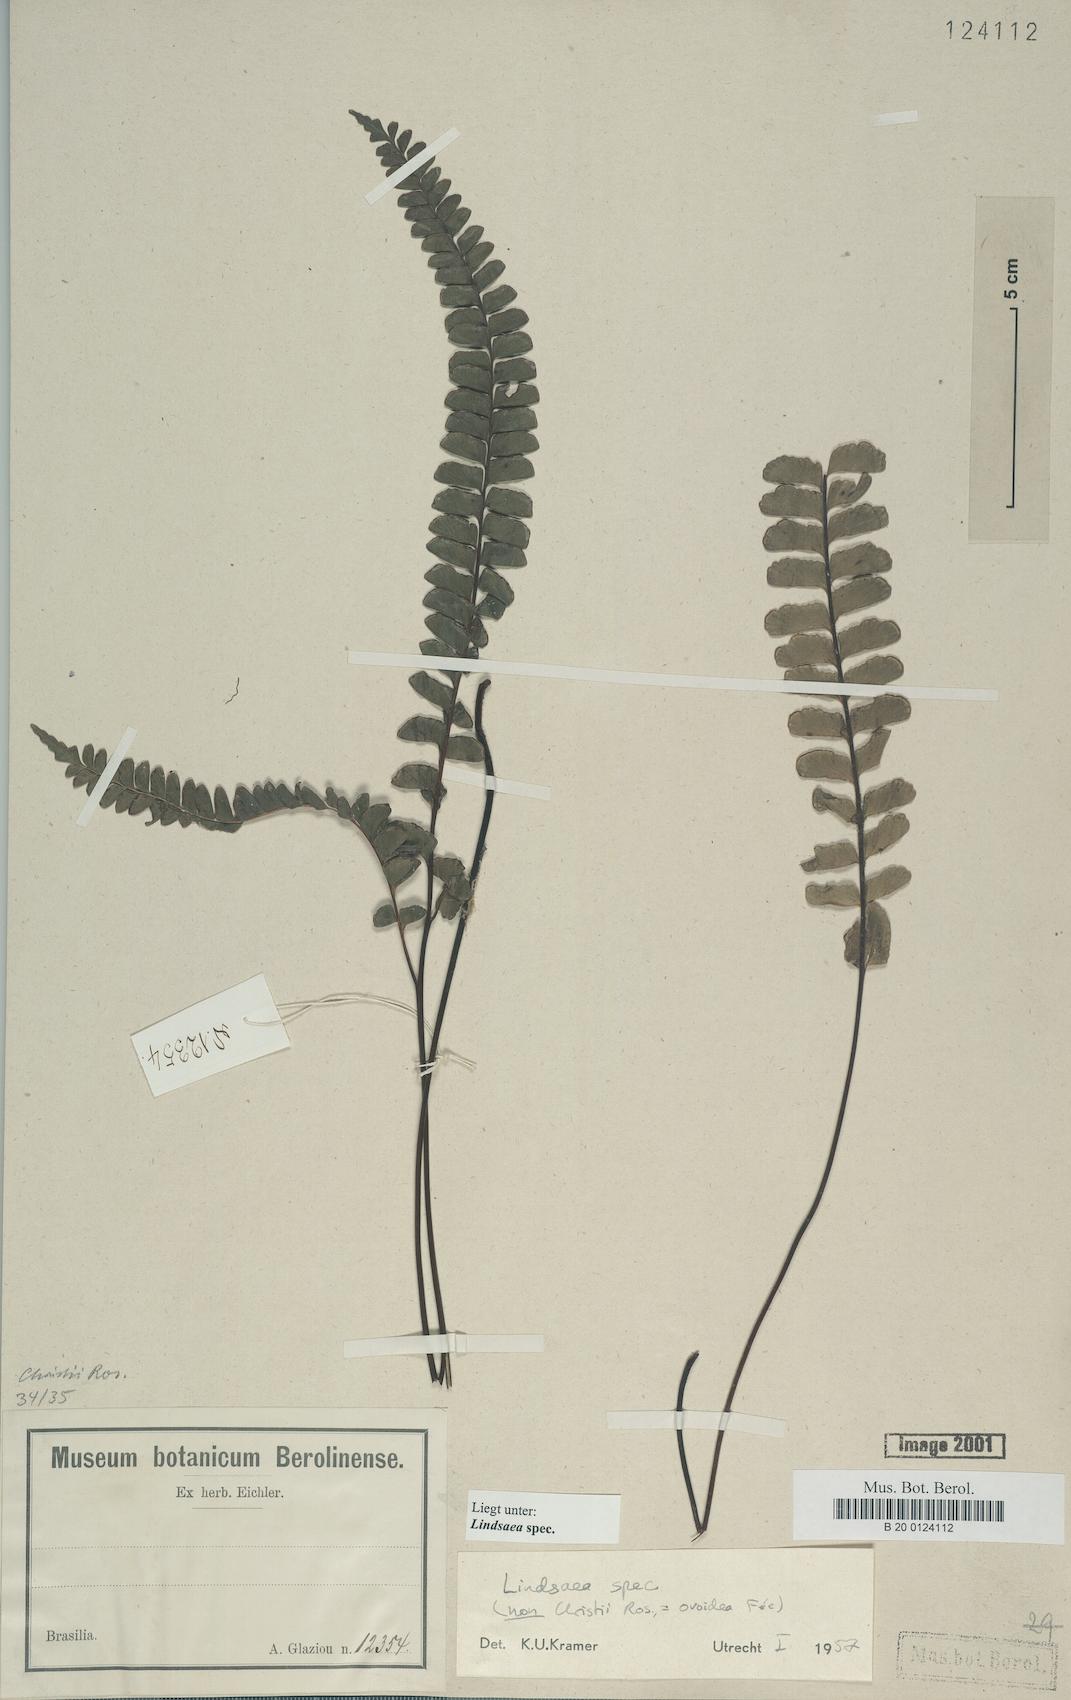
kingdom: Plantae
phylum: Tracheophyta
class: Polypodiopsida
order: Polypodiales
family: Lindsaeaceae
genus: Lindsaea
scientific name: Lindsaea
